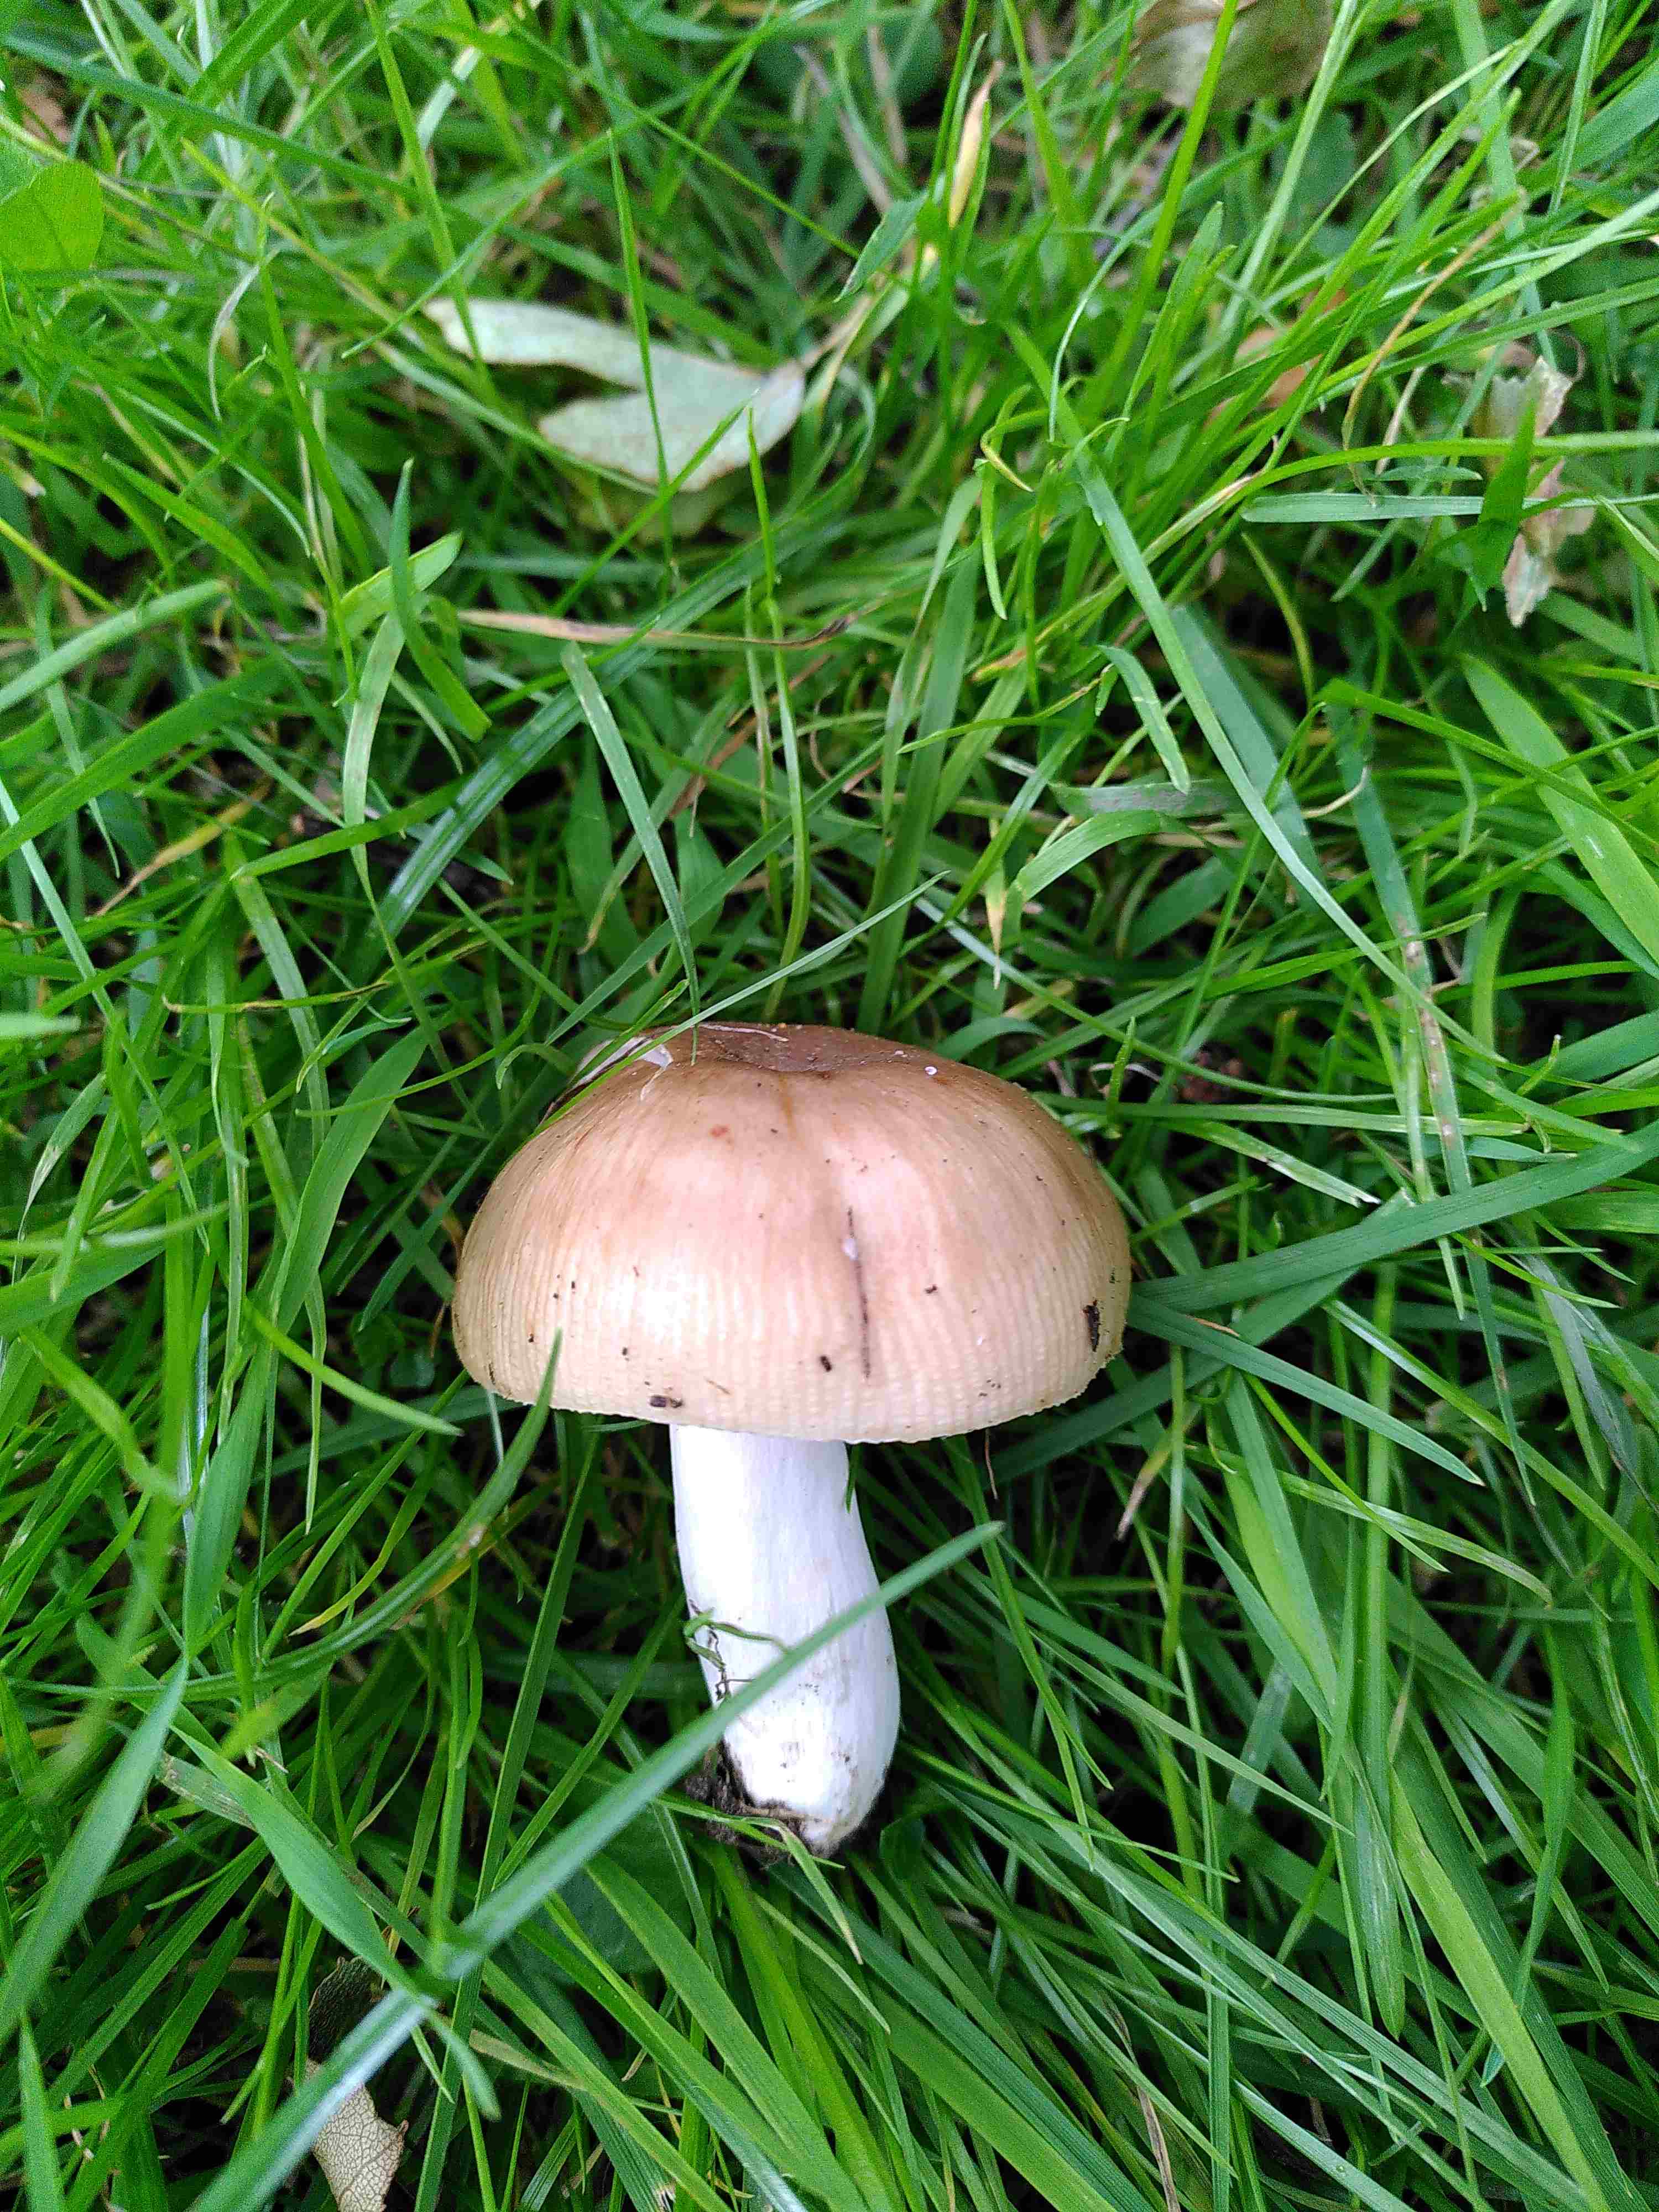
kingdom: Fungi
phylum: Basidiomycota
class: Agaricomycetes
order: Russulales
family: Russulaceae
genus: Russula
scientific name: Russula
